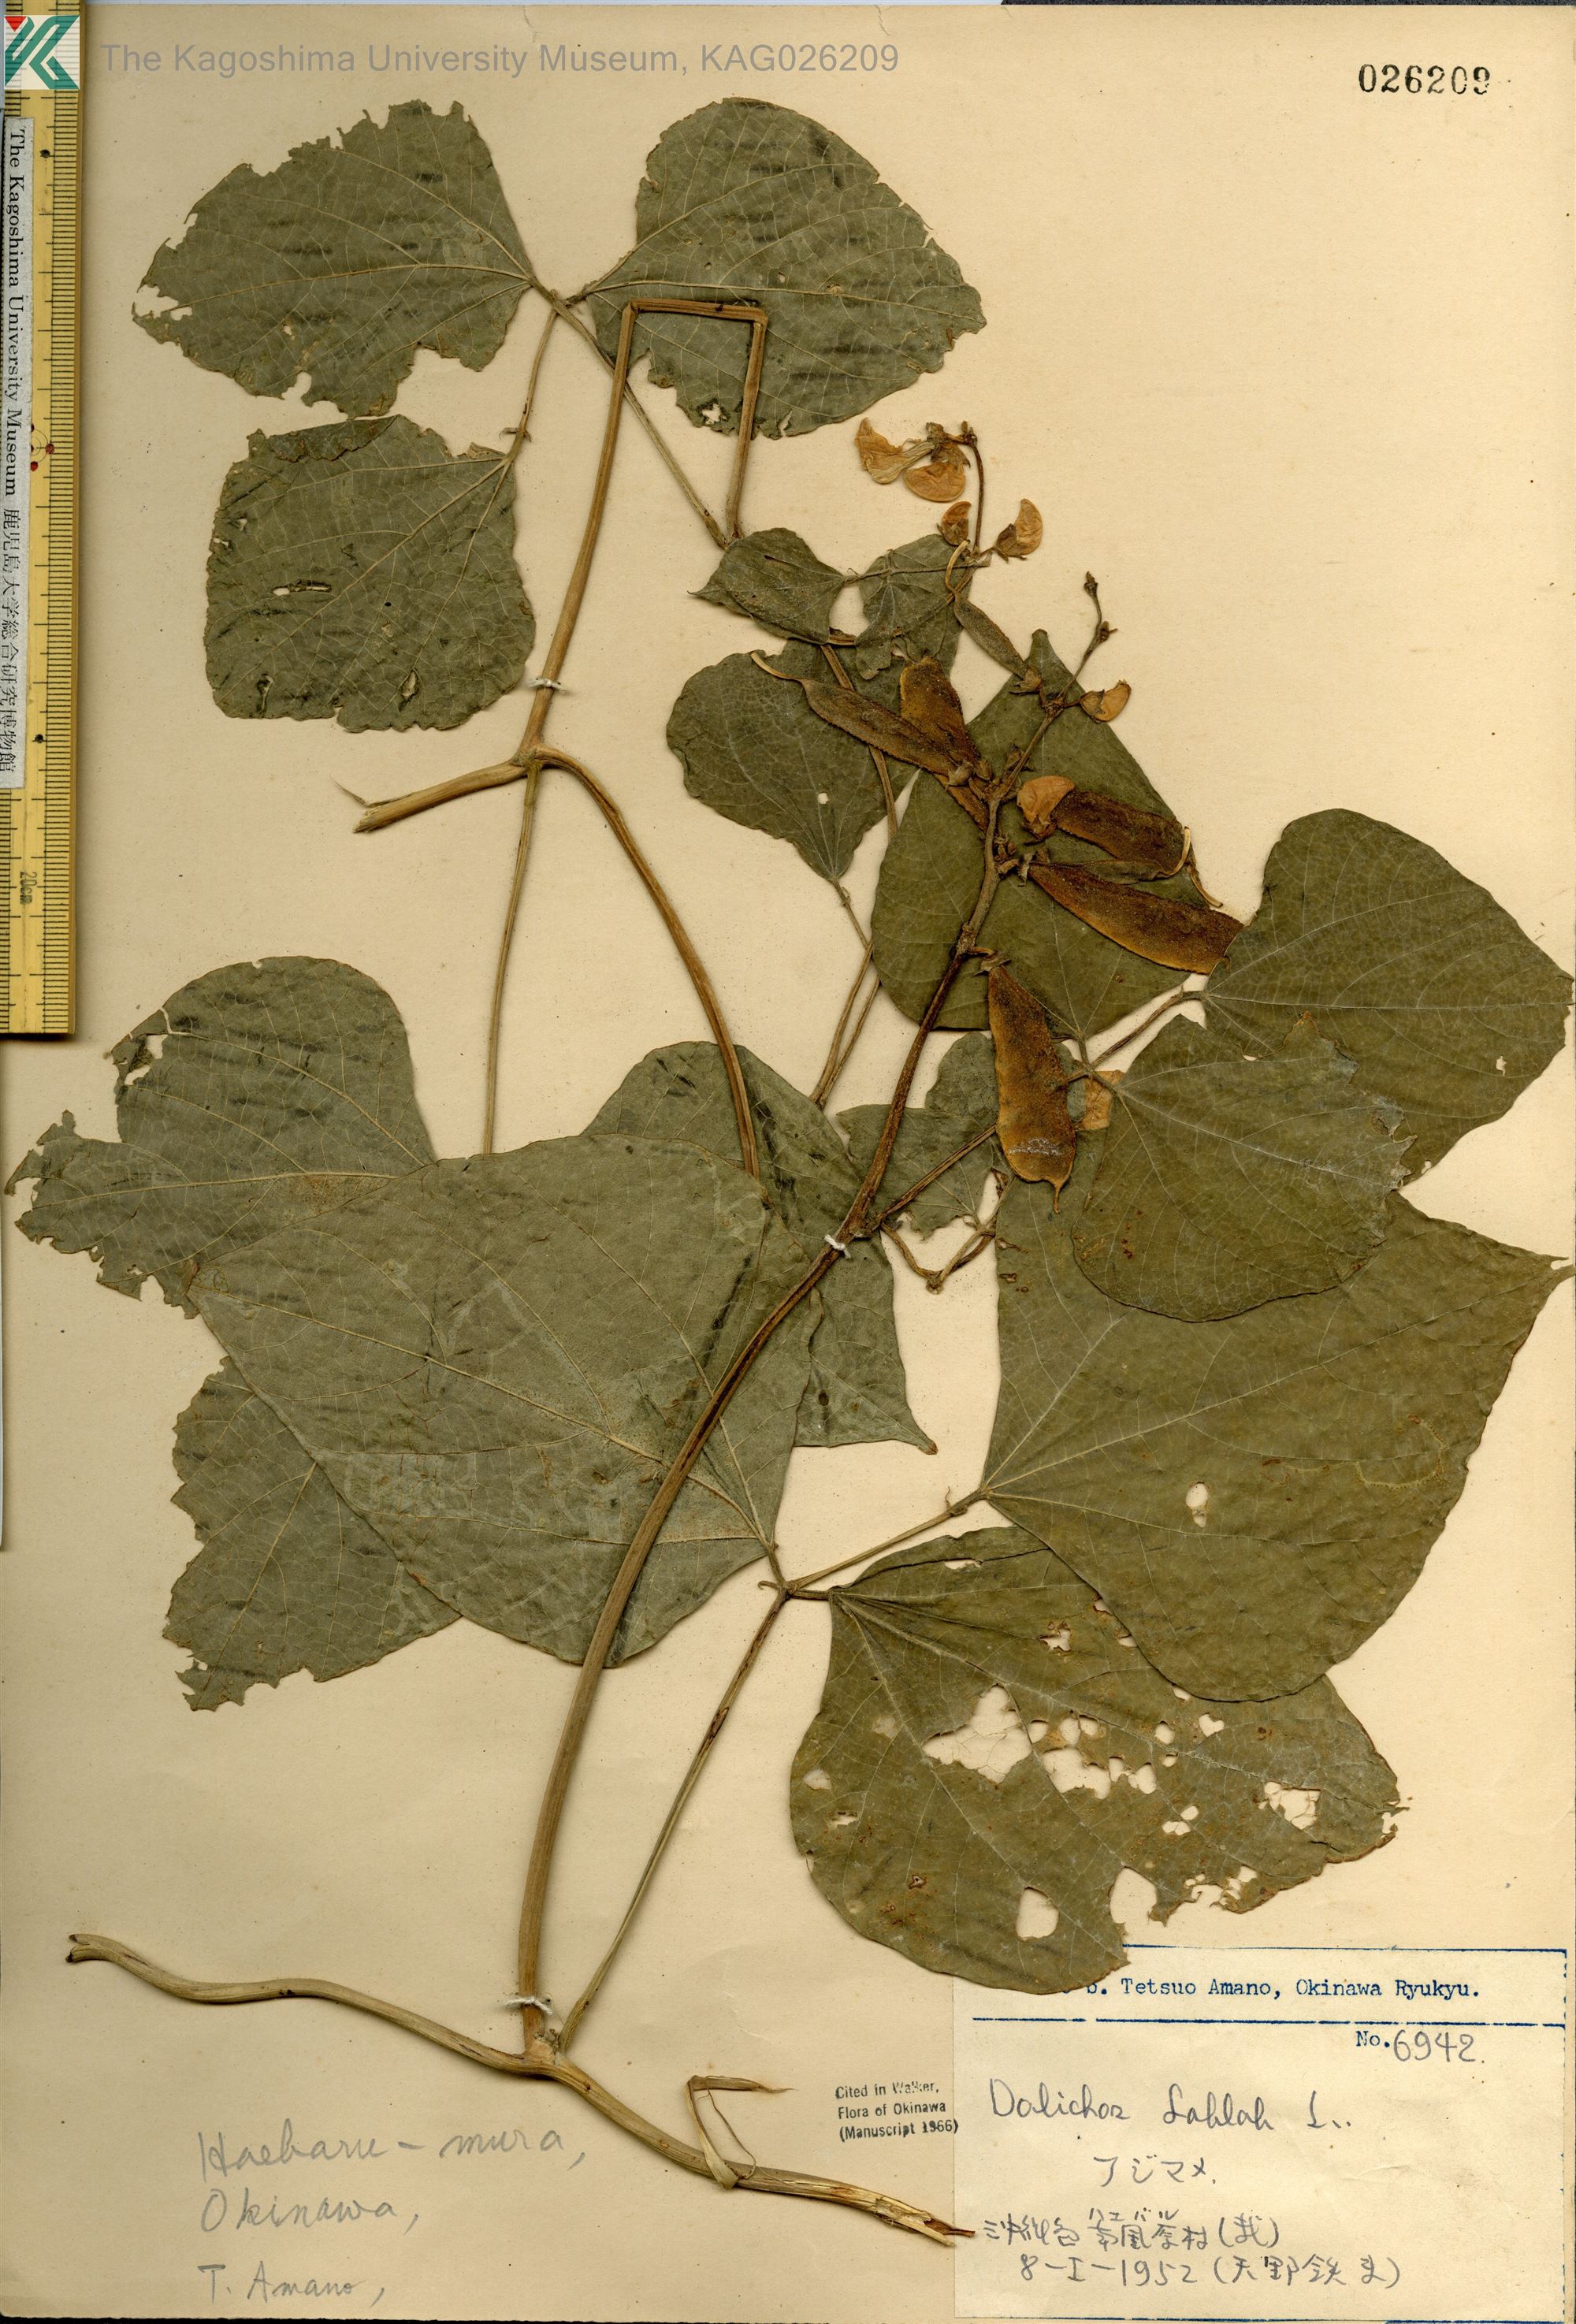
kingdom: Plantae
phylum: Tracheophyta
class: Magnoliopsida
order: Fabales
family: Fabaceae
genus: Lablab
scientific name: Lablab purpureus
